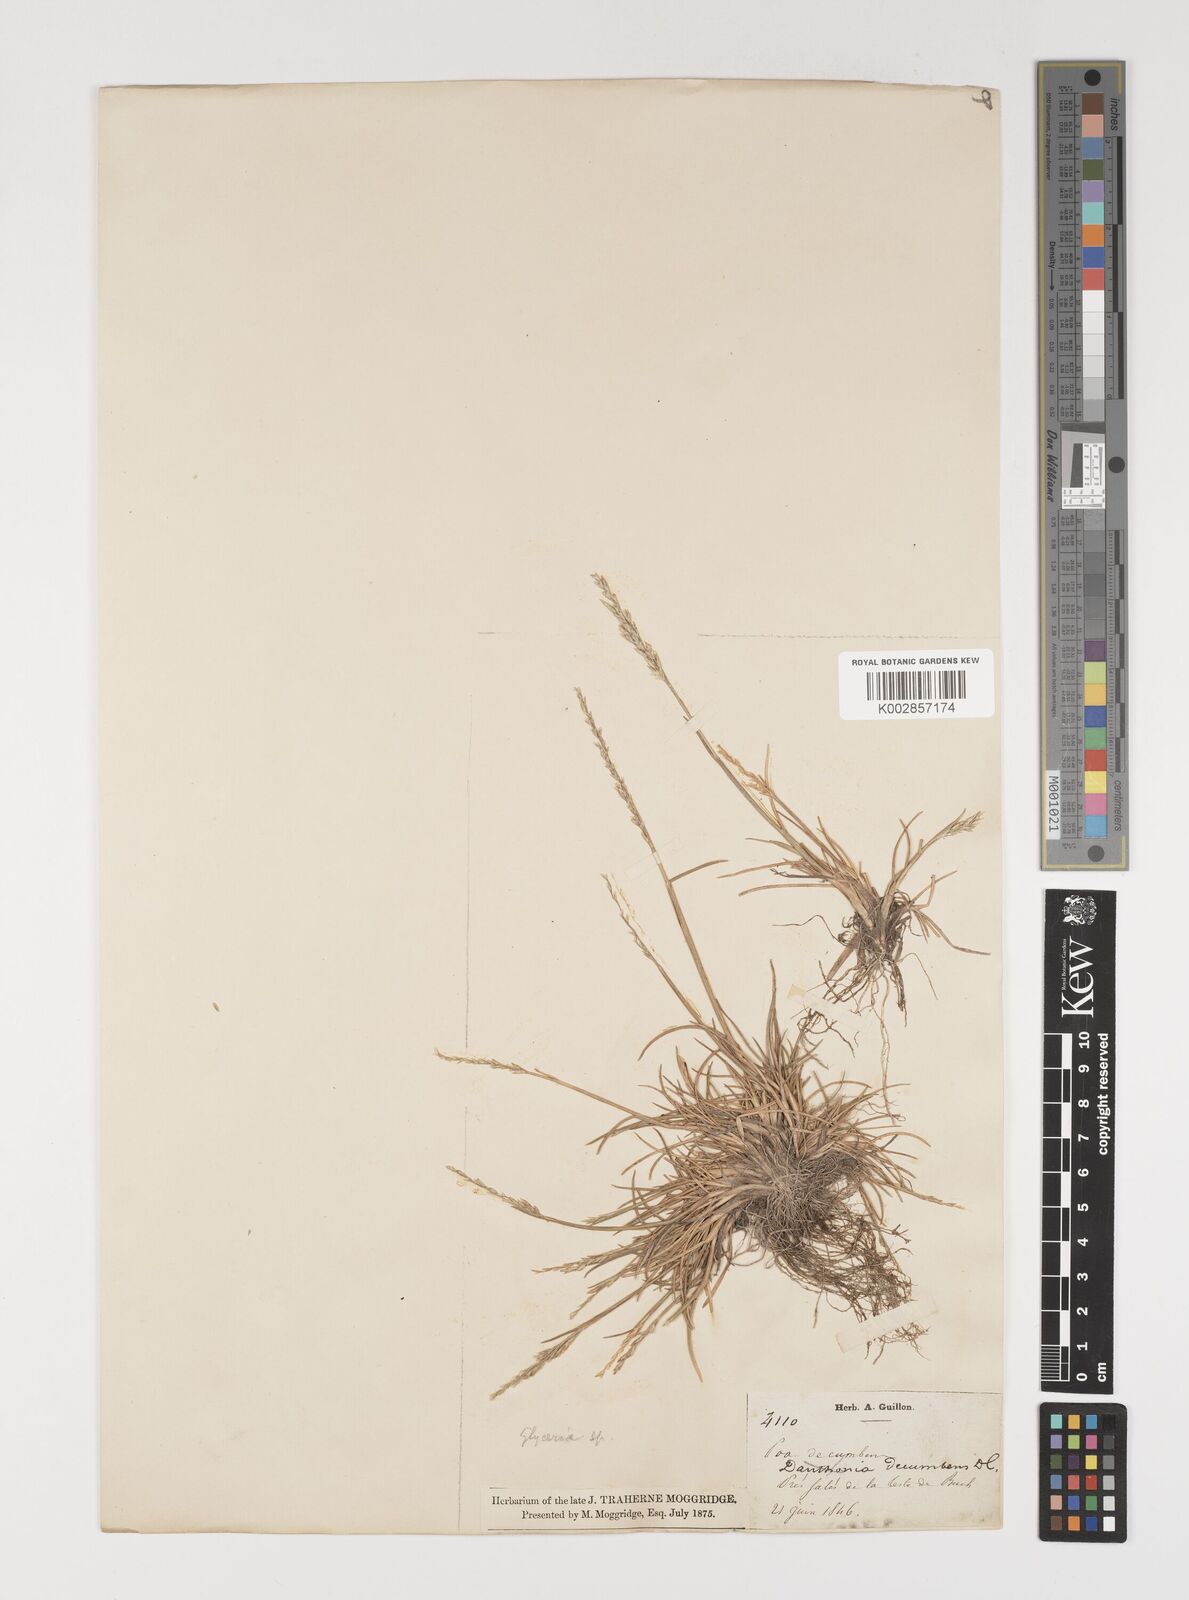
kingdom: Plantae
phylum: Tracheophyta
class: Liliopsida
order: Poales
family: Poaceae
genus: Puccinellia
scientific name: Puccinellia convoluta
